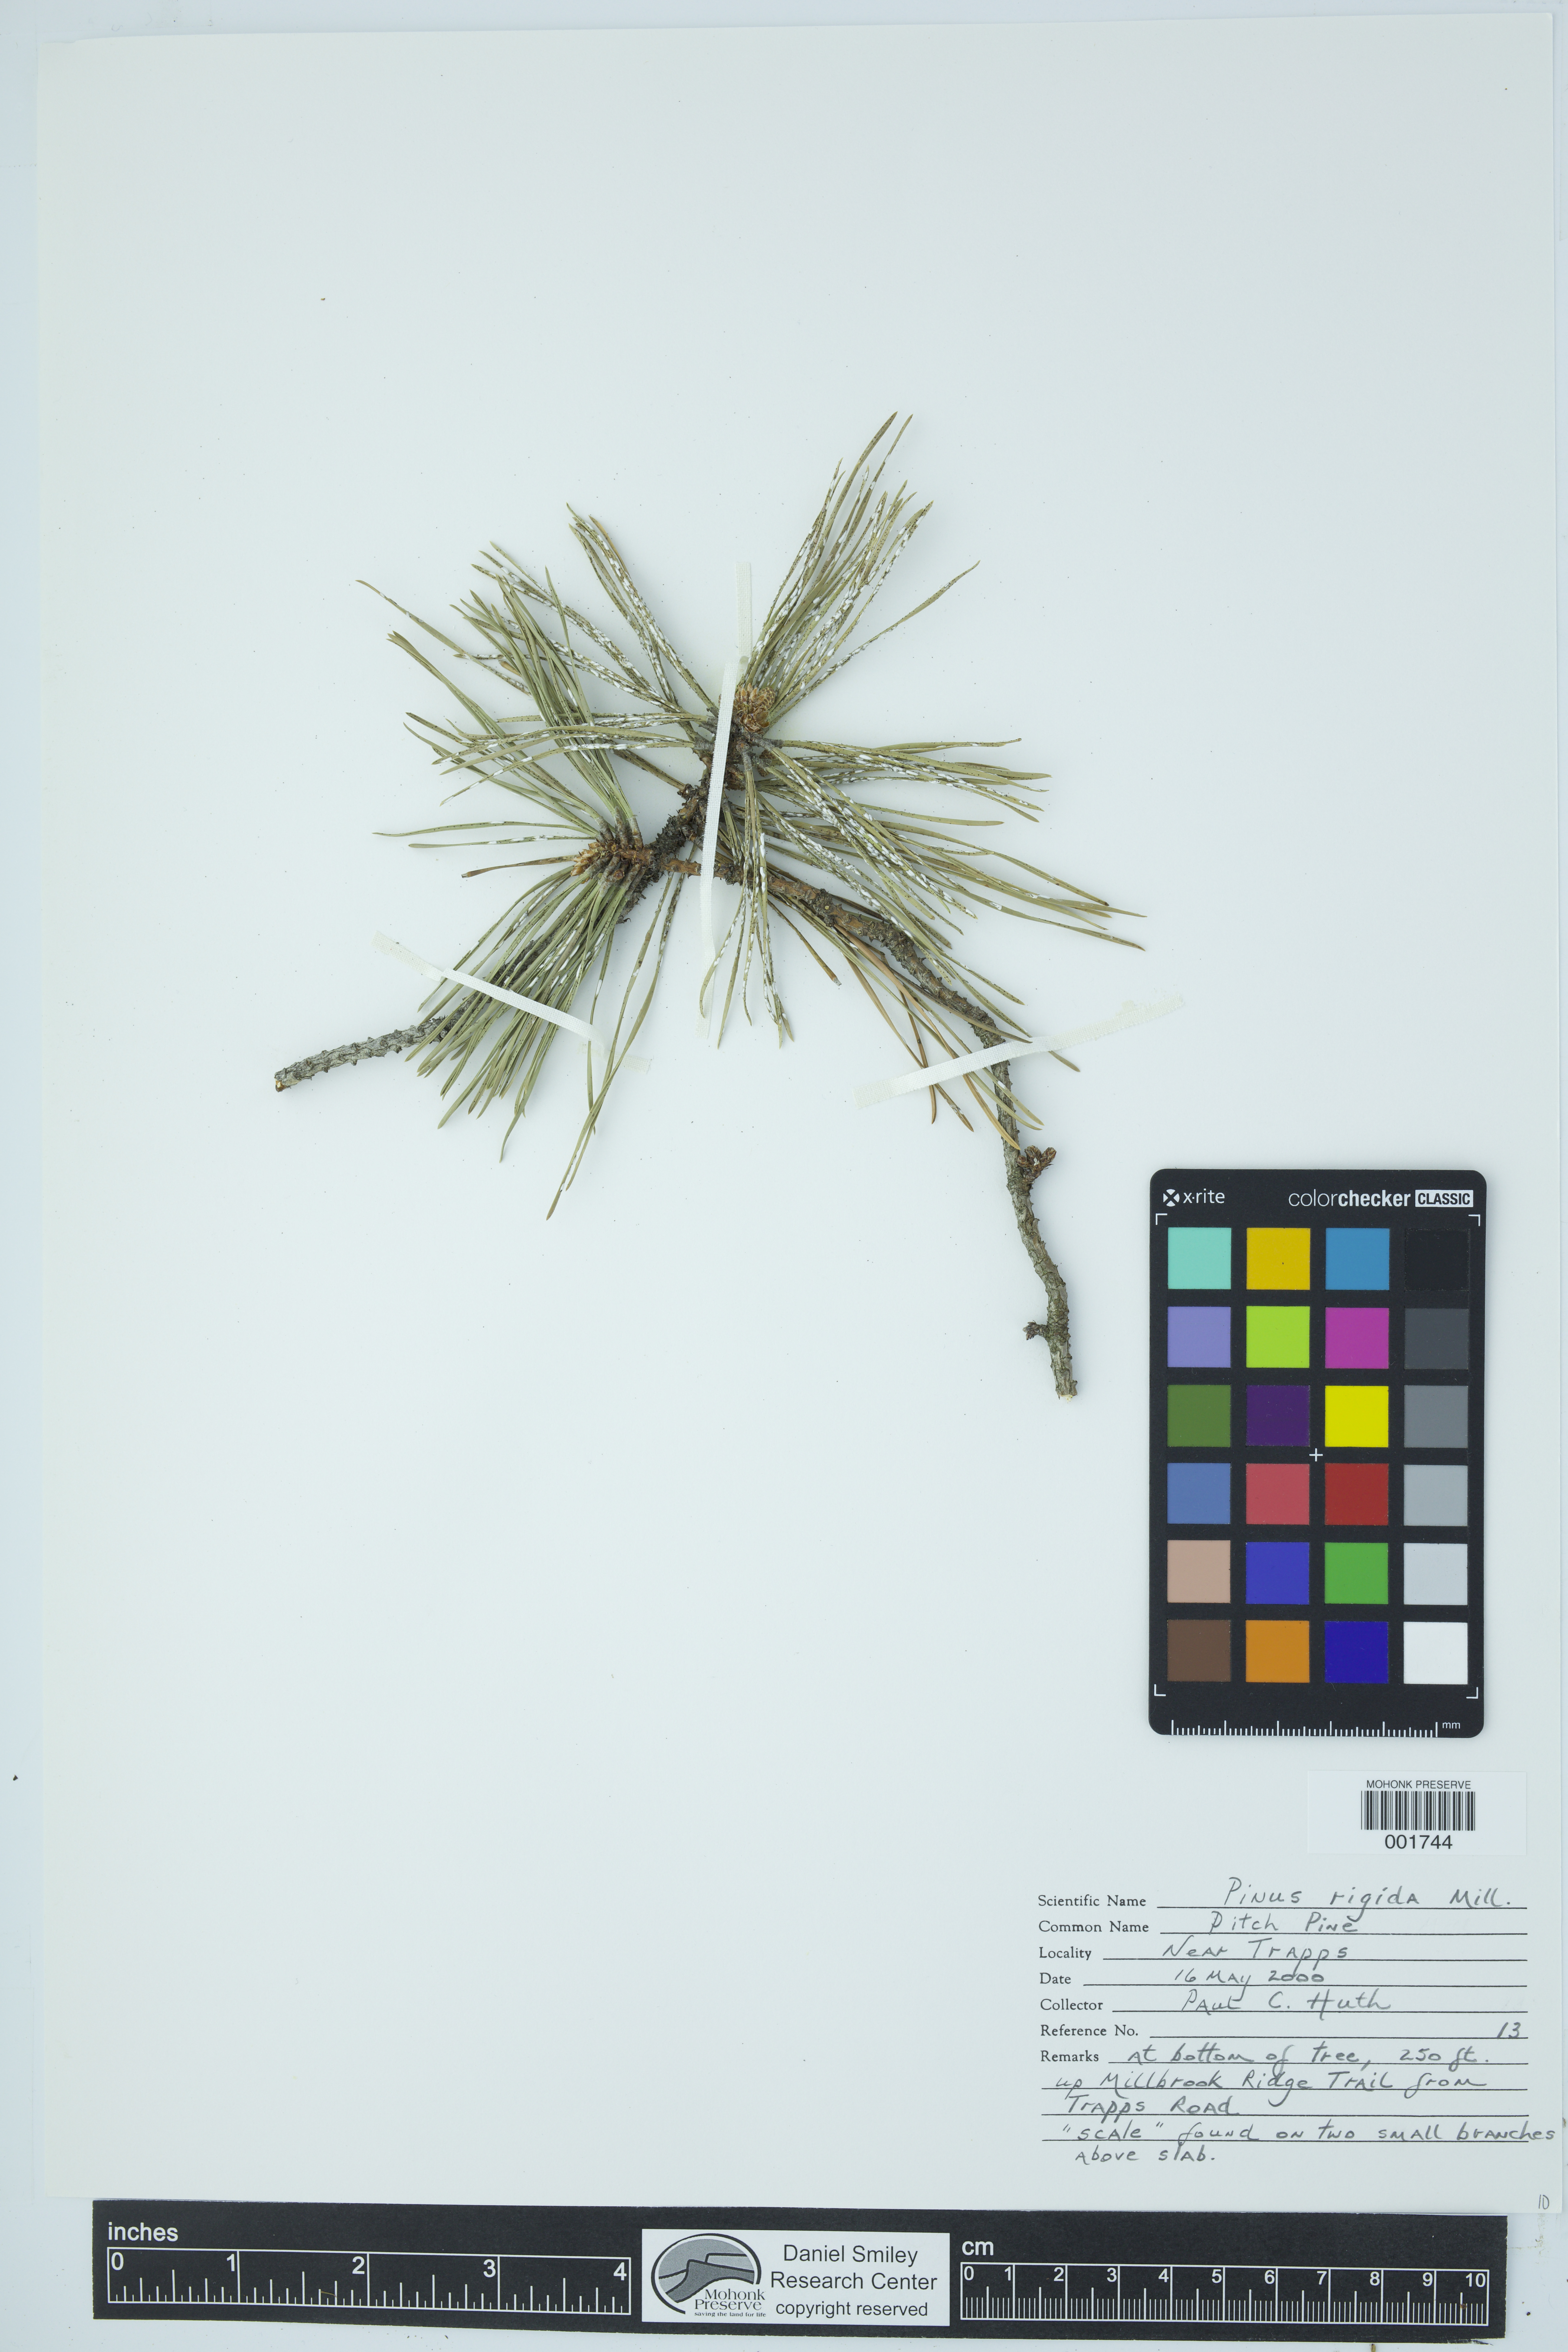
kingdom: Plantae
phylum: Tracheophyta
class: Pinopsida
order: Pinales
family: Pinaceae
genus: Pinus
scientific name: Pinus rigida
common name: Pitch pine
